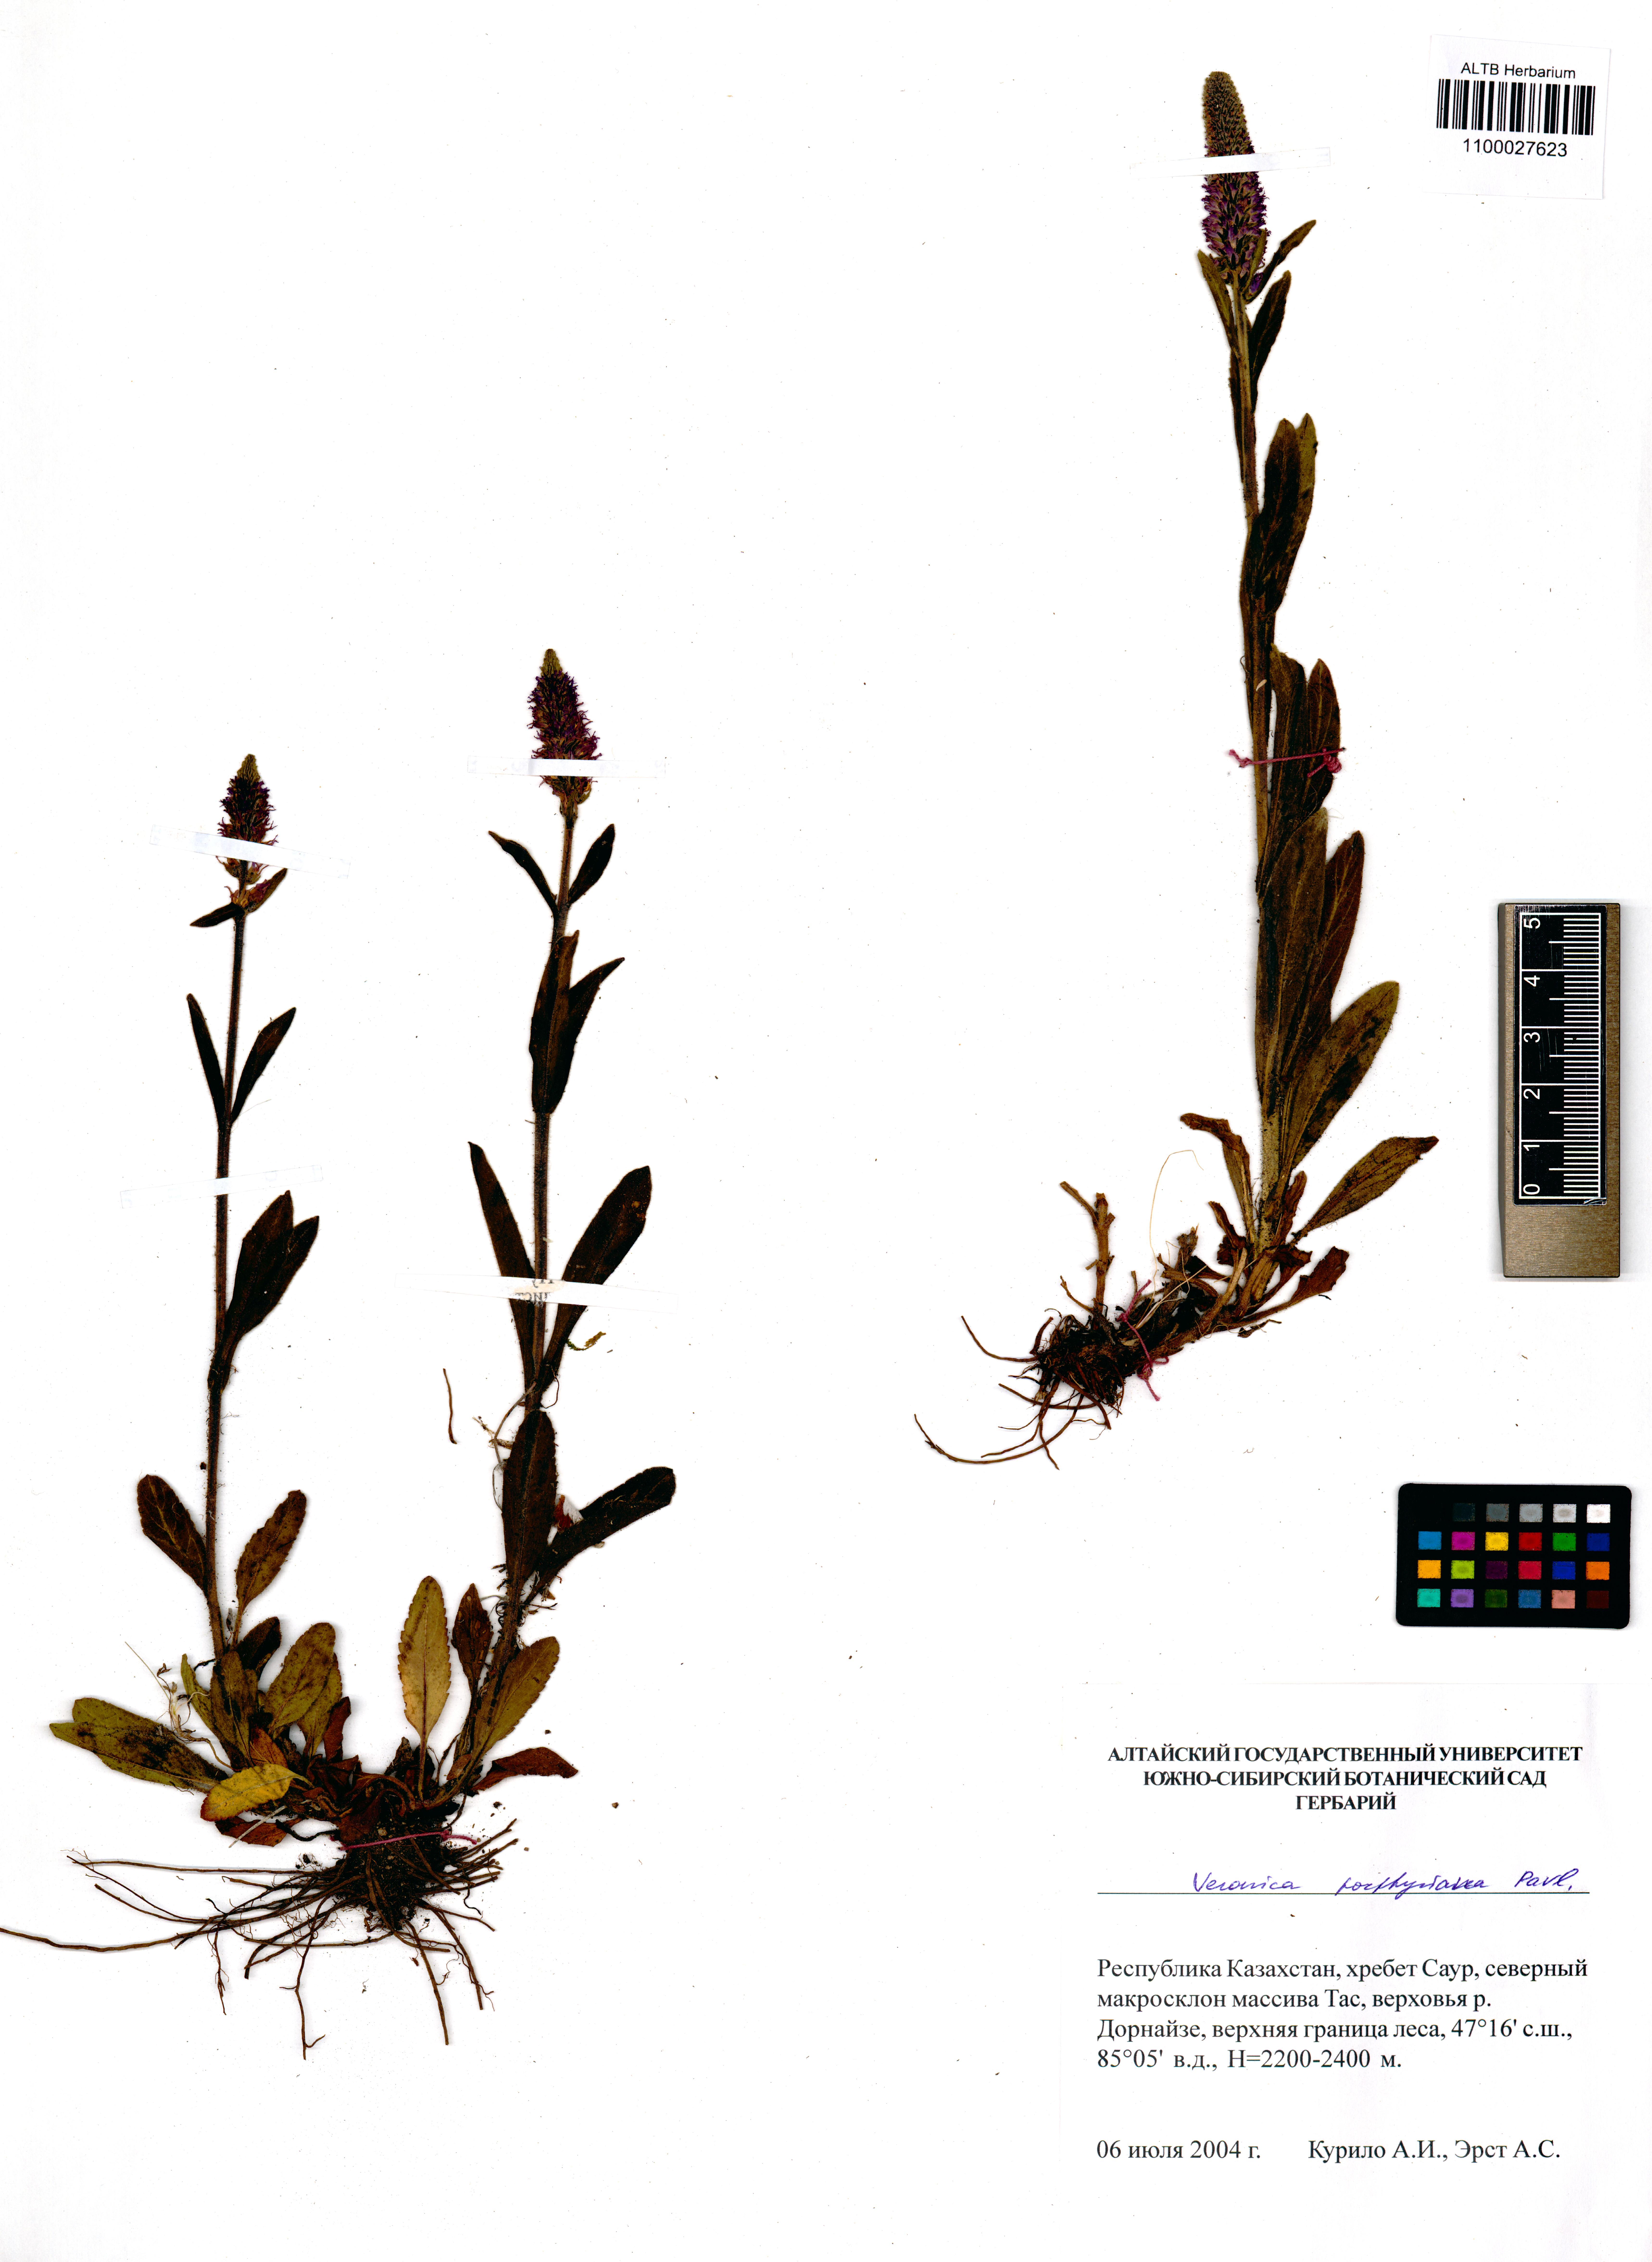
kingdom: Plantae
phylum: Tracheophyta
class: Magnoliopsida
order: Lamiales
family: Plantaginaceae
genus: Veronica
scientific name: Veronica porphyriana
